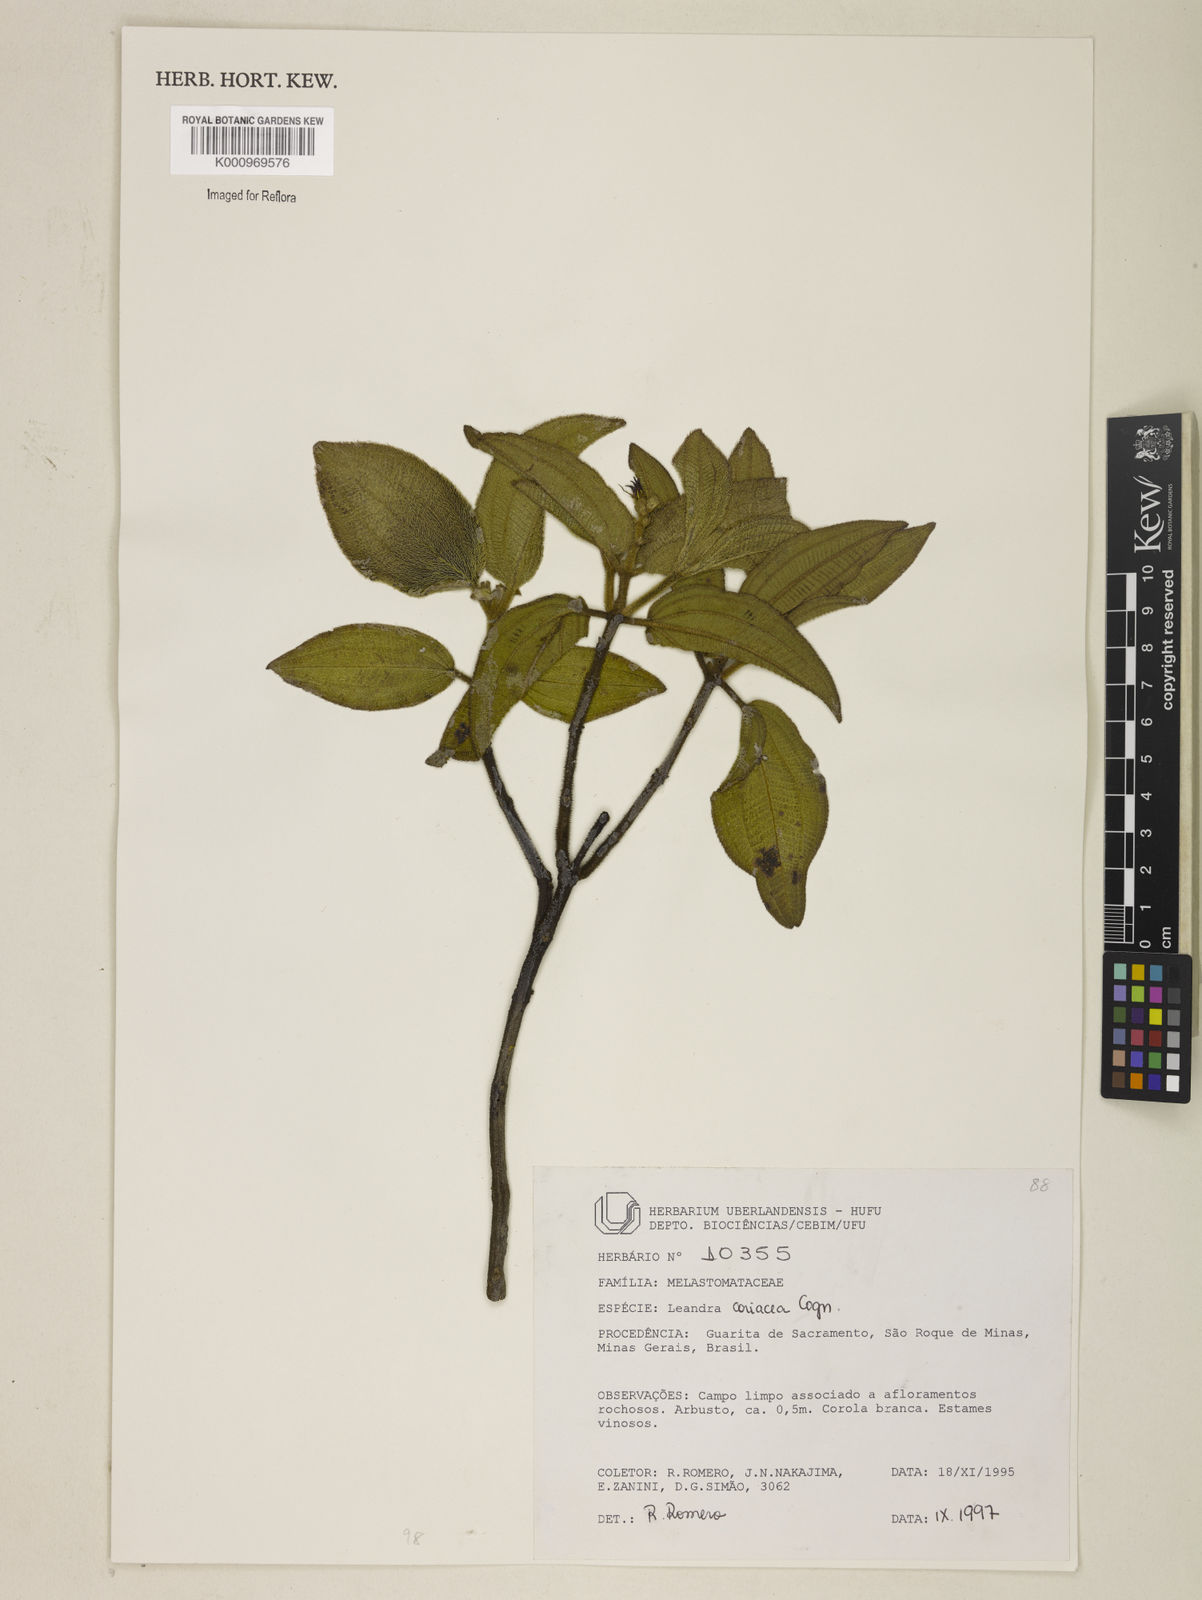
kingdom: Plantae
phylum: Tracheophyta
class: Magnoliopsida
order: Myrtales
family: Melastomataceae
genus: Miconia
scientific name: Miconia leacoriacea
